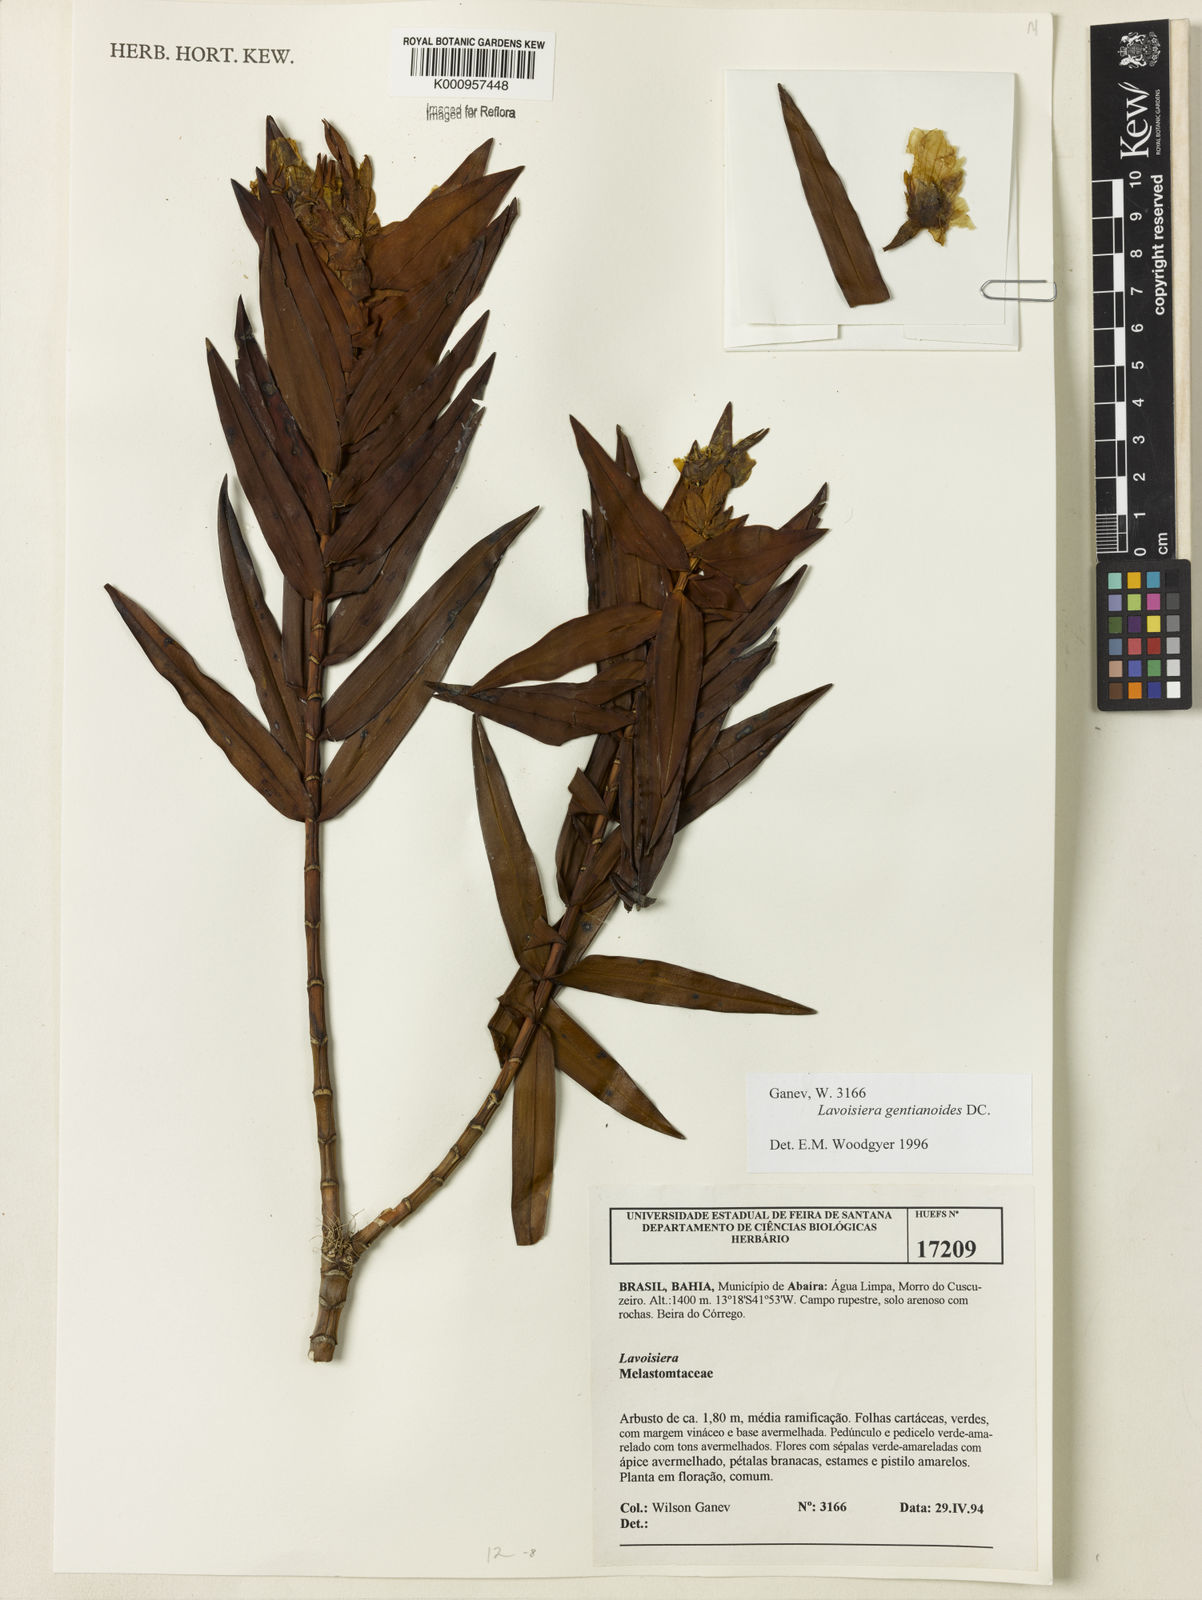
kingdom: Plantae
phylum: Tracheophyta
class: Magnoliopsida
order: Myrtales
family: Melastomataceae
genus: Microlicia
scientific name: Microlicia gentianoides
